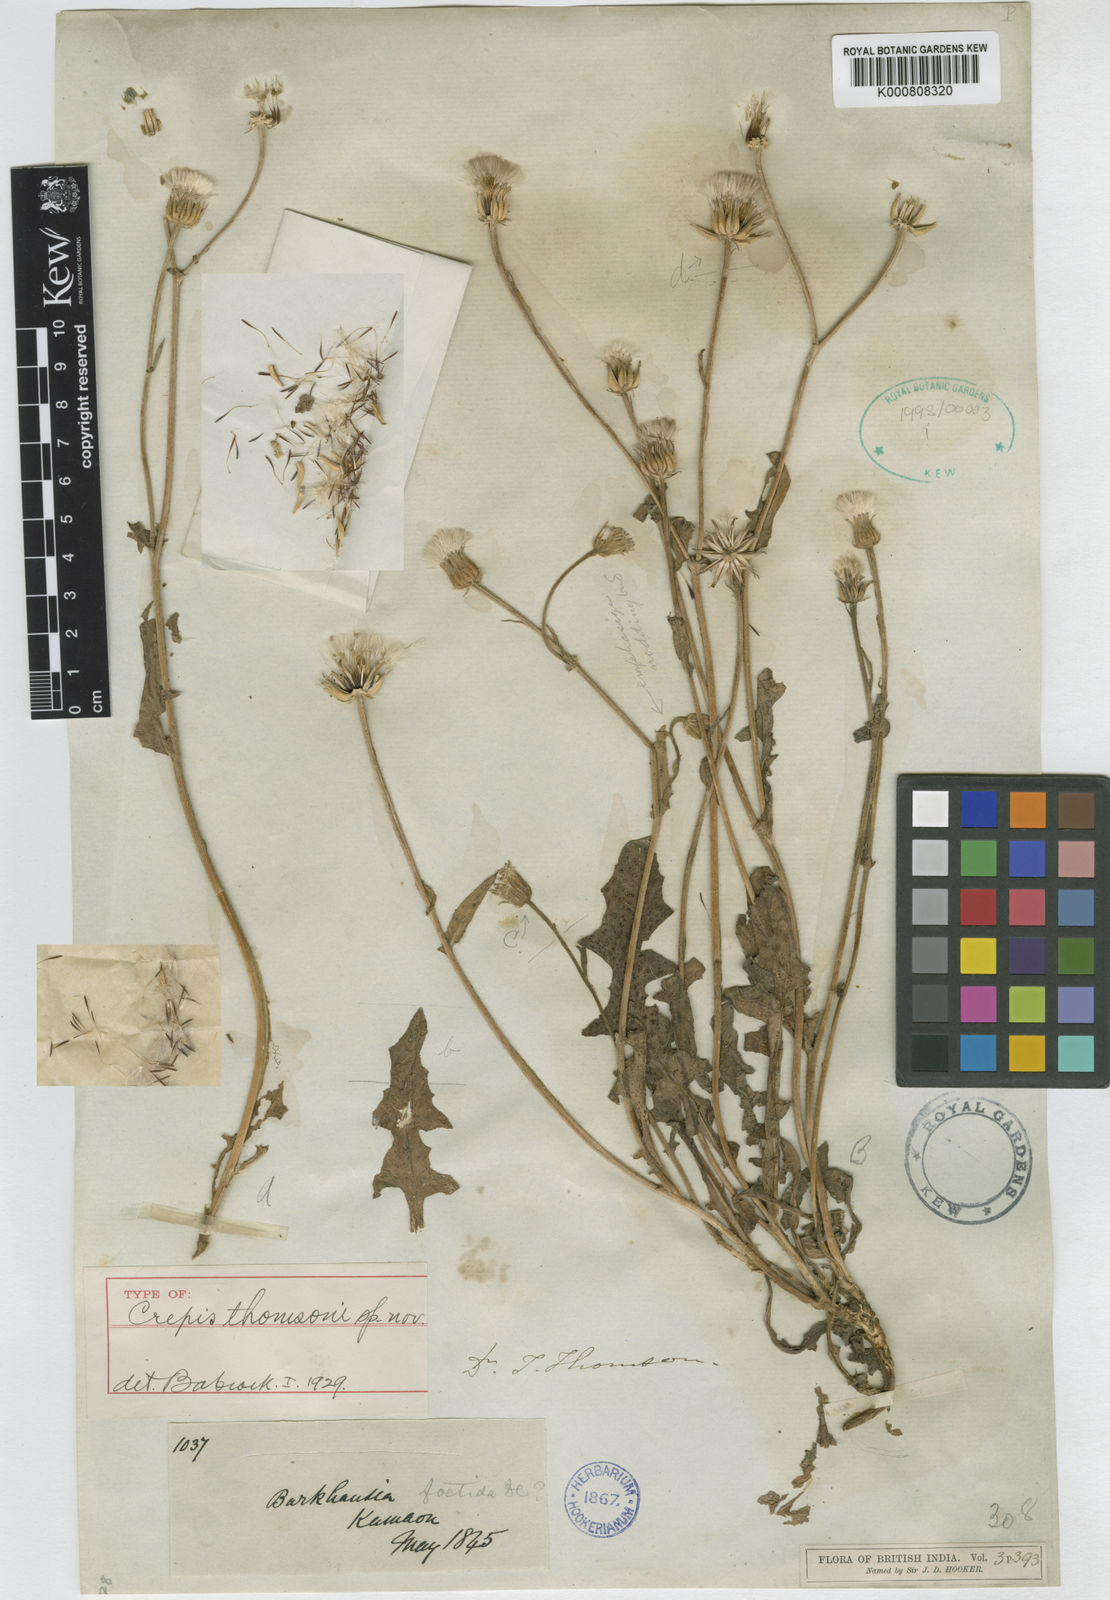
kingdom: Plantae
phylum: Tracheophyta
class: Magnoliopsida
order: Asterales
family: Asteraceae
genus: Crepis
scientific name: Crepis
